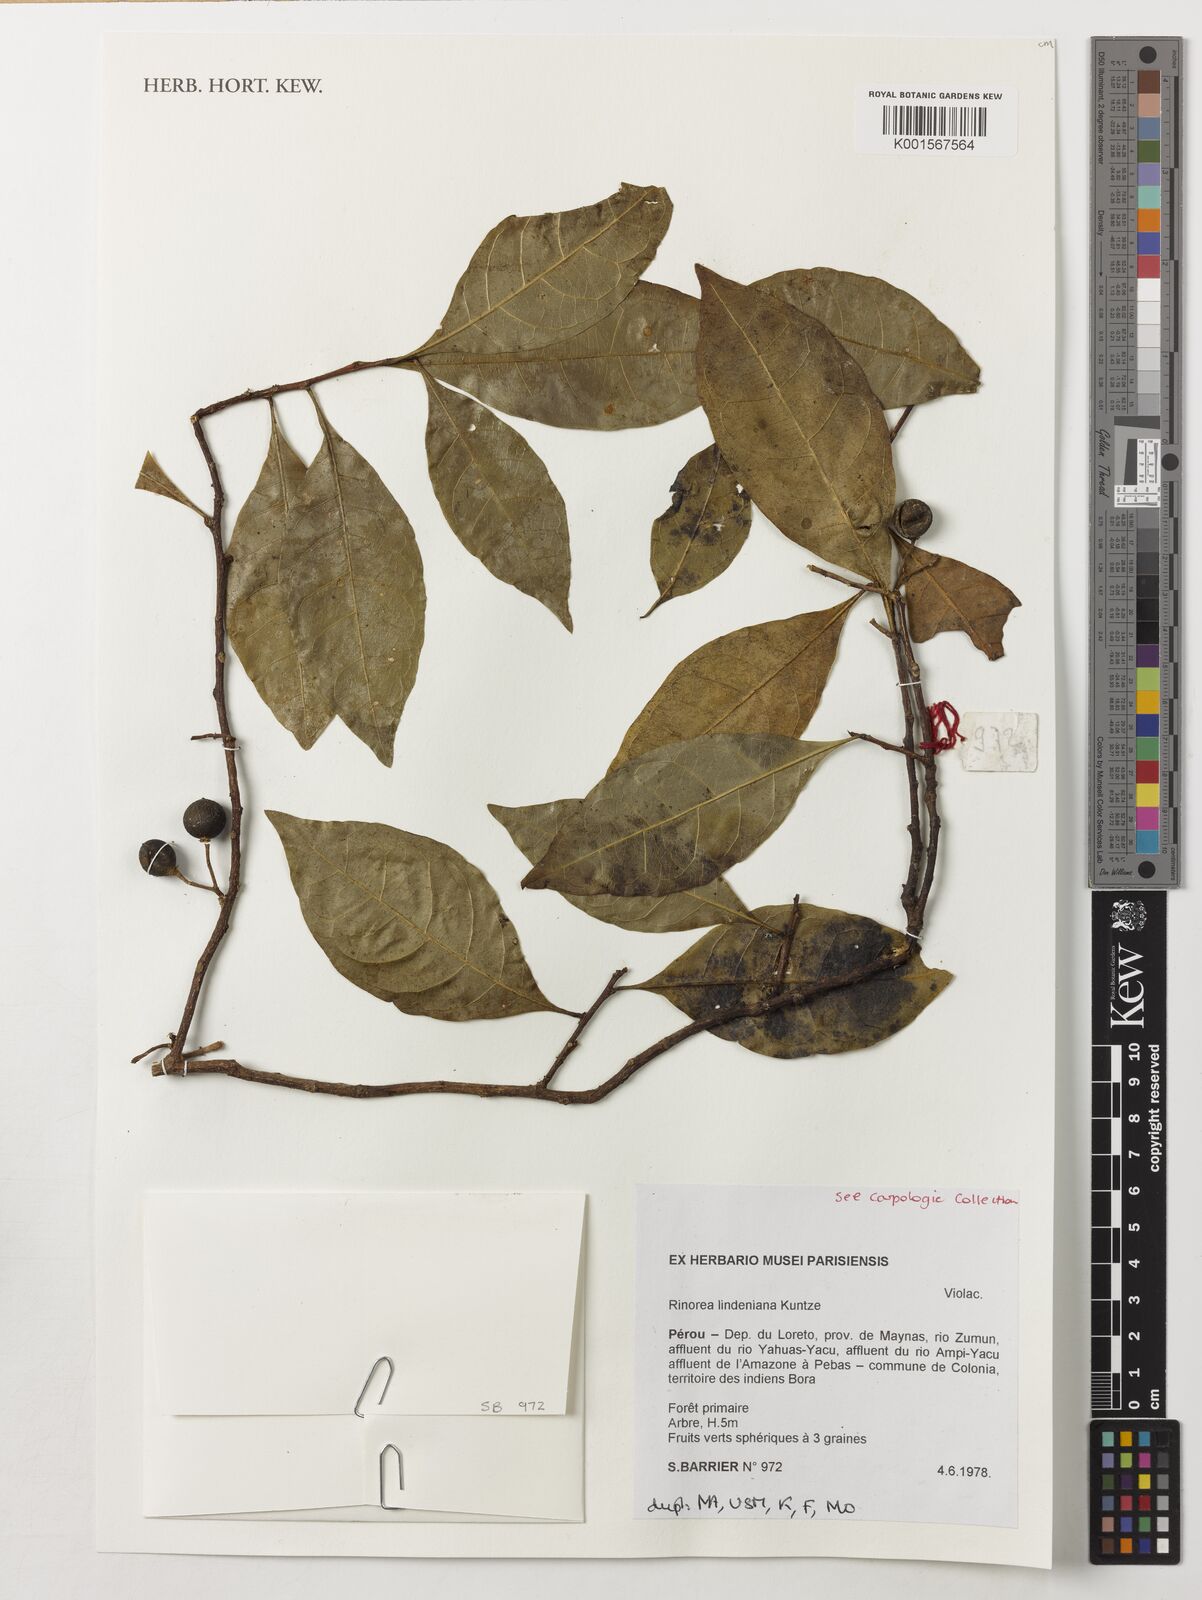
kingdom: Plantae
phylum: Tracheophyta
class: Magnoliopsida
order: Malpighiales
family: Violaceae
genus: Rinorea
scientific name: Rinorea lindeniana
